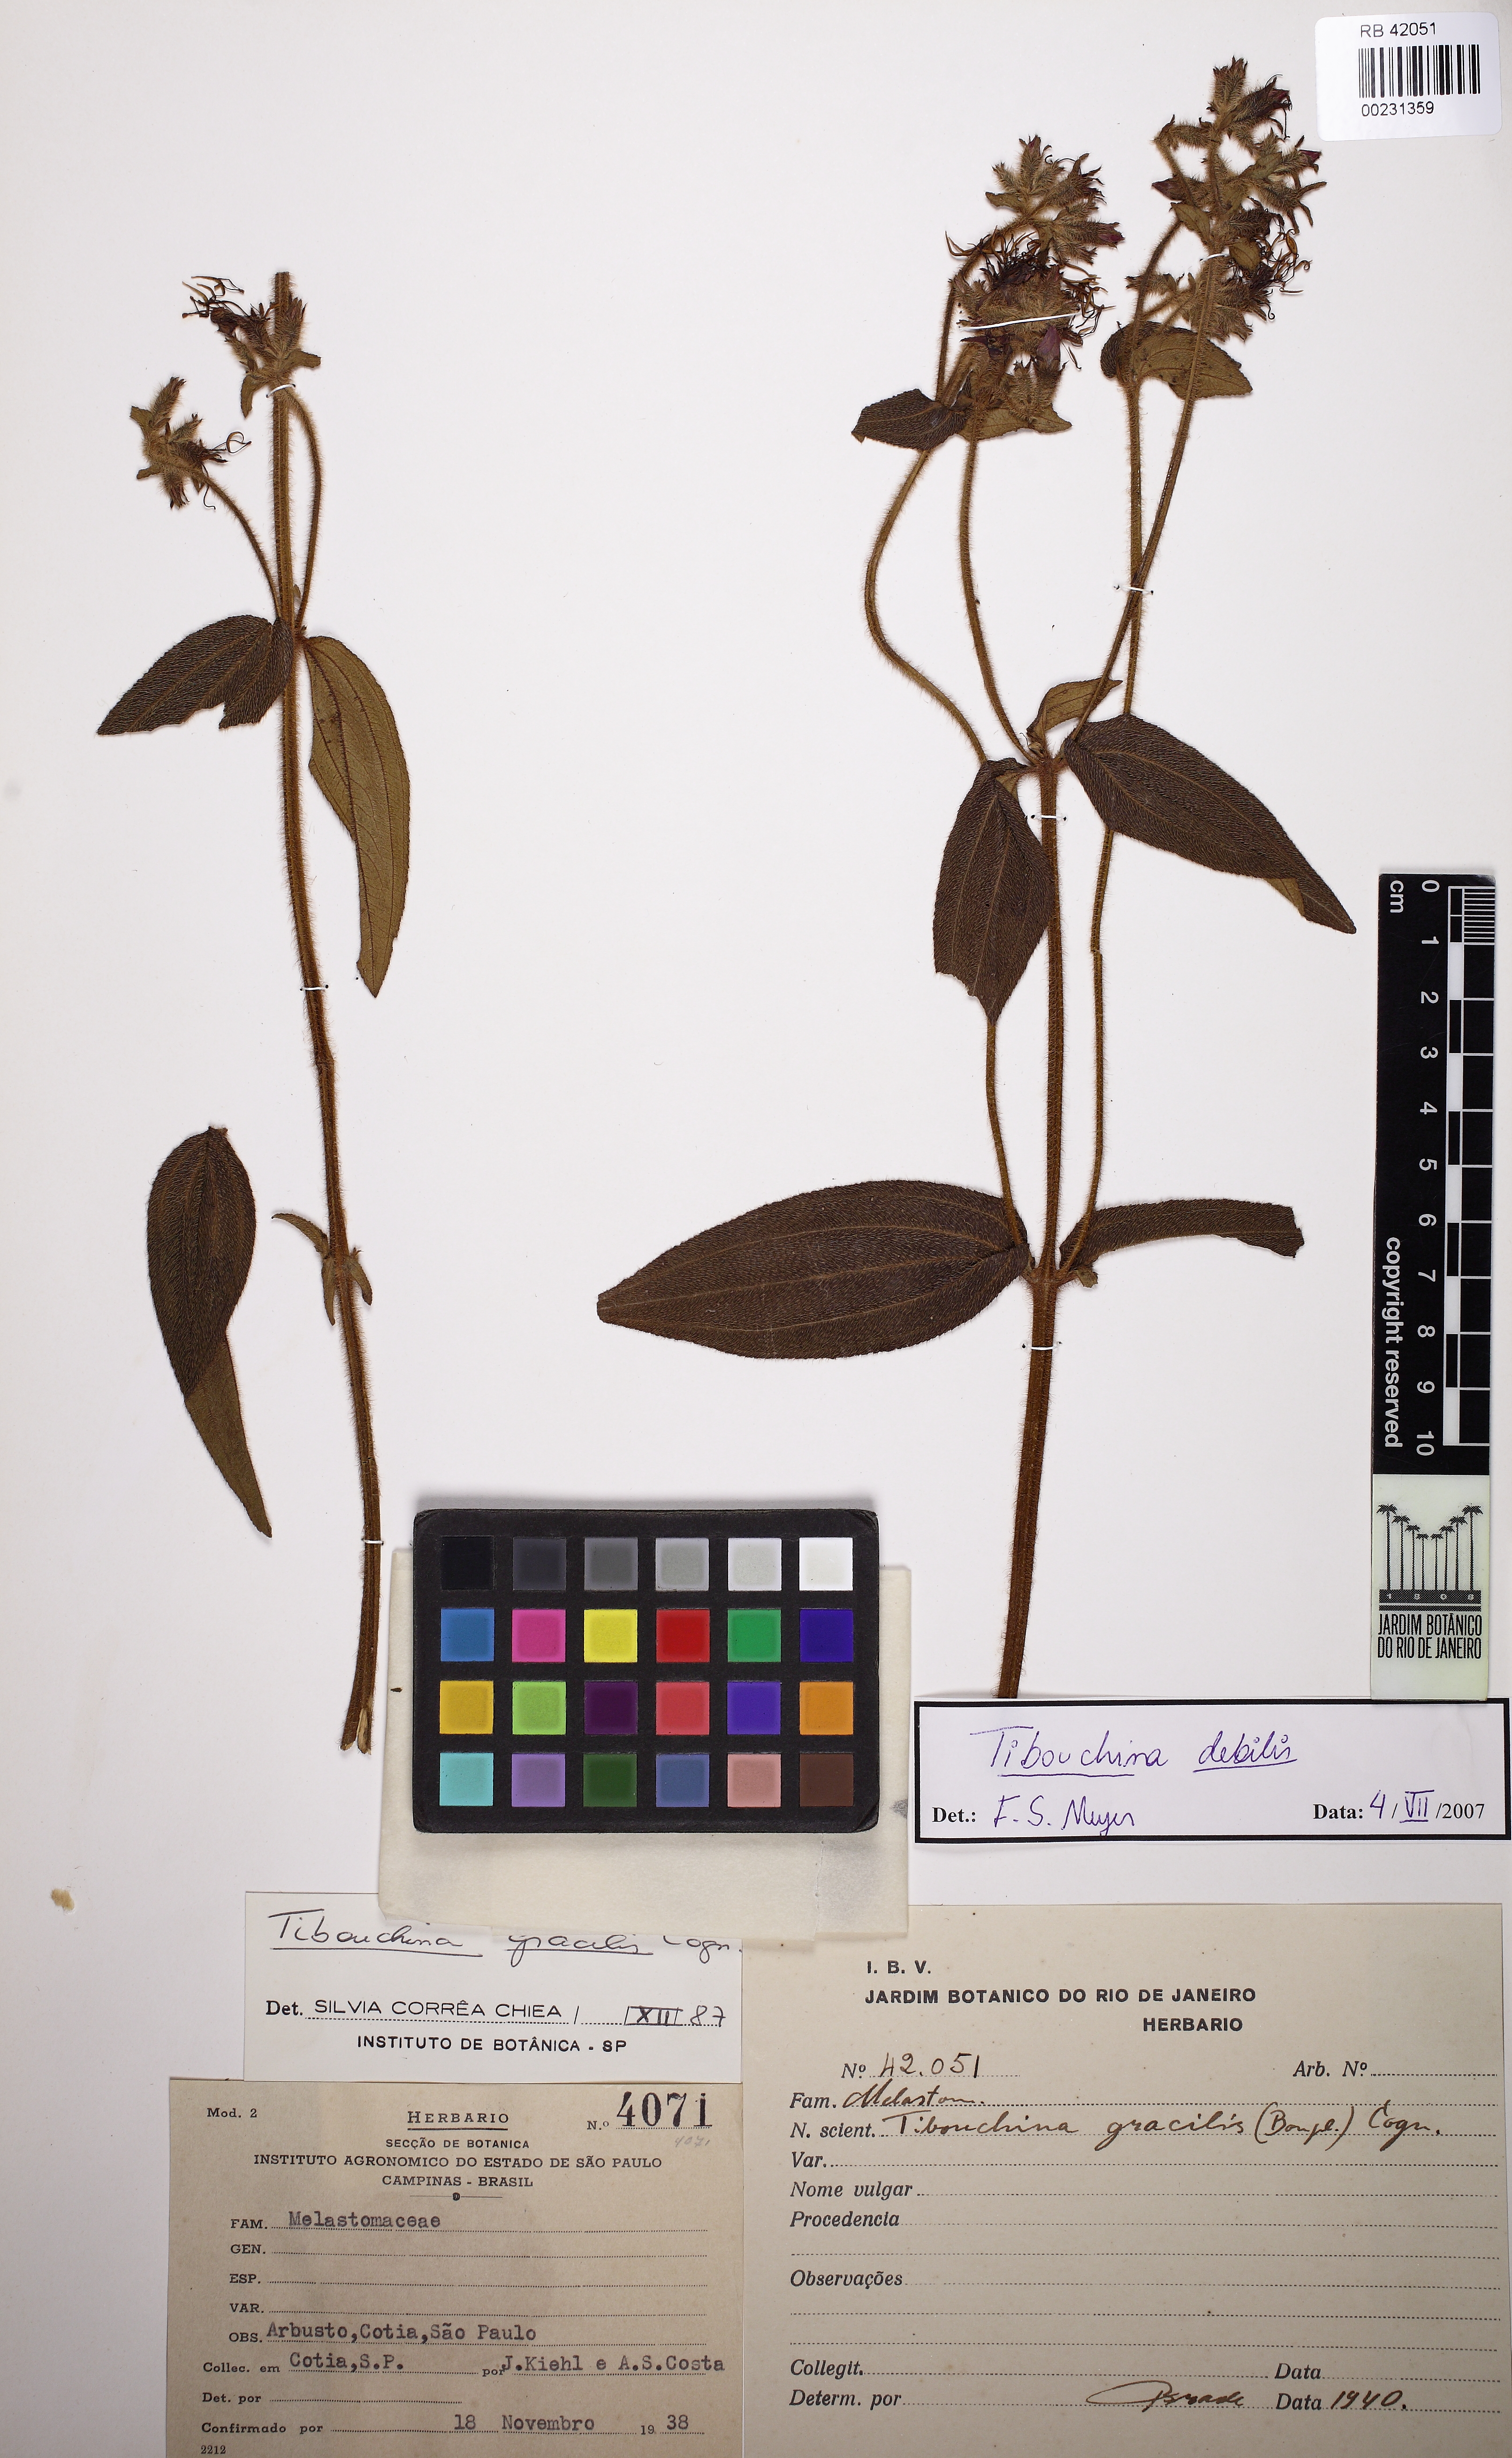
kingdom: Plantae
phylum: Tracheophyta
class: Magnoliopsida
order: Myrtales
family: Melastomataceae
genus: Chaetogastra
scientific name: Chaetogastra debilis
